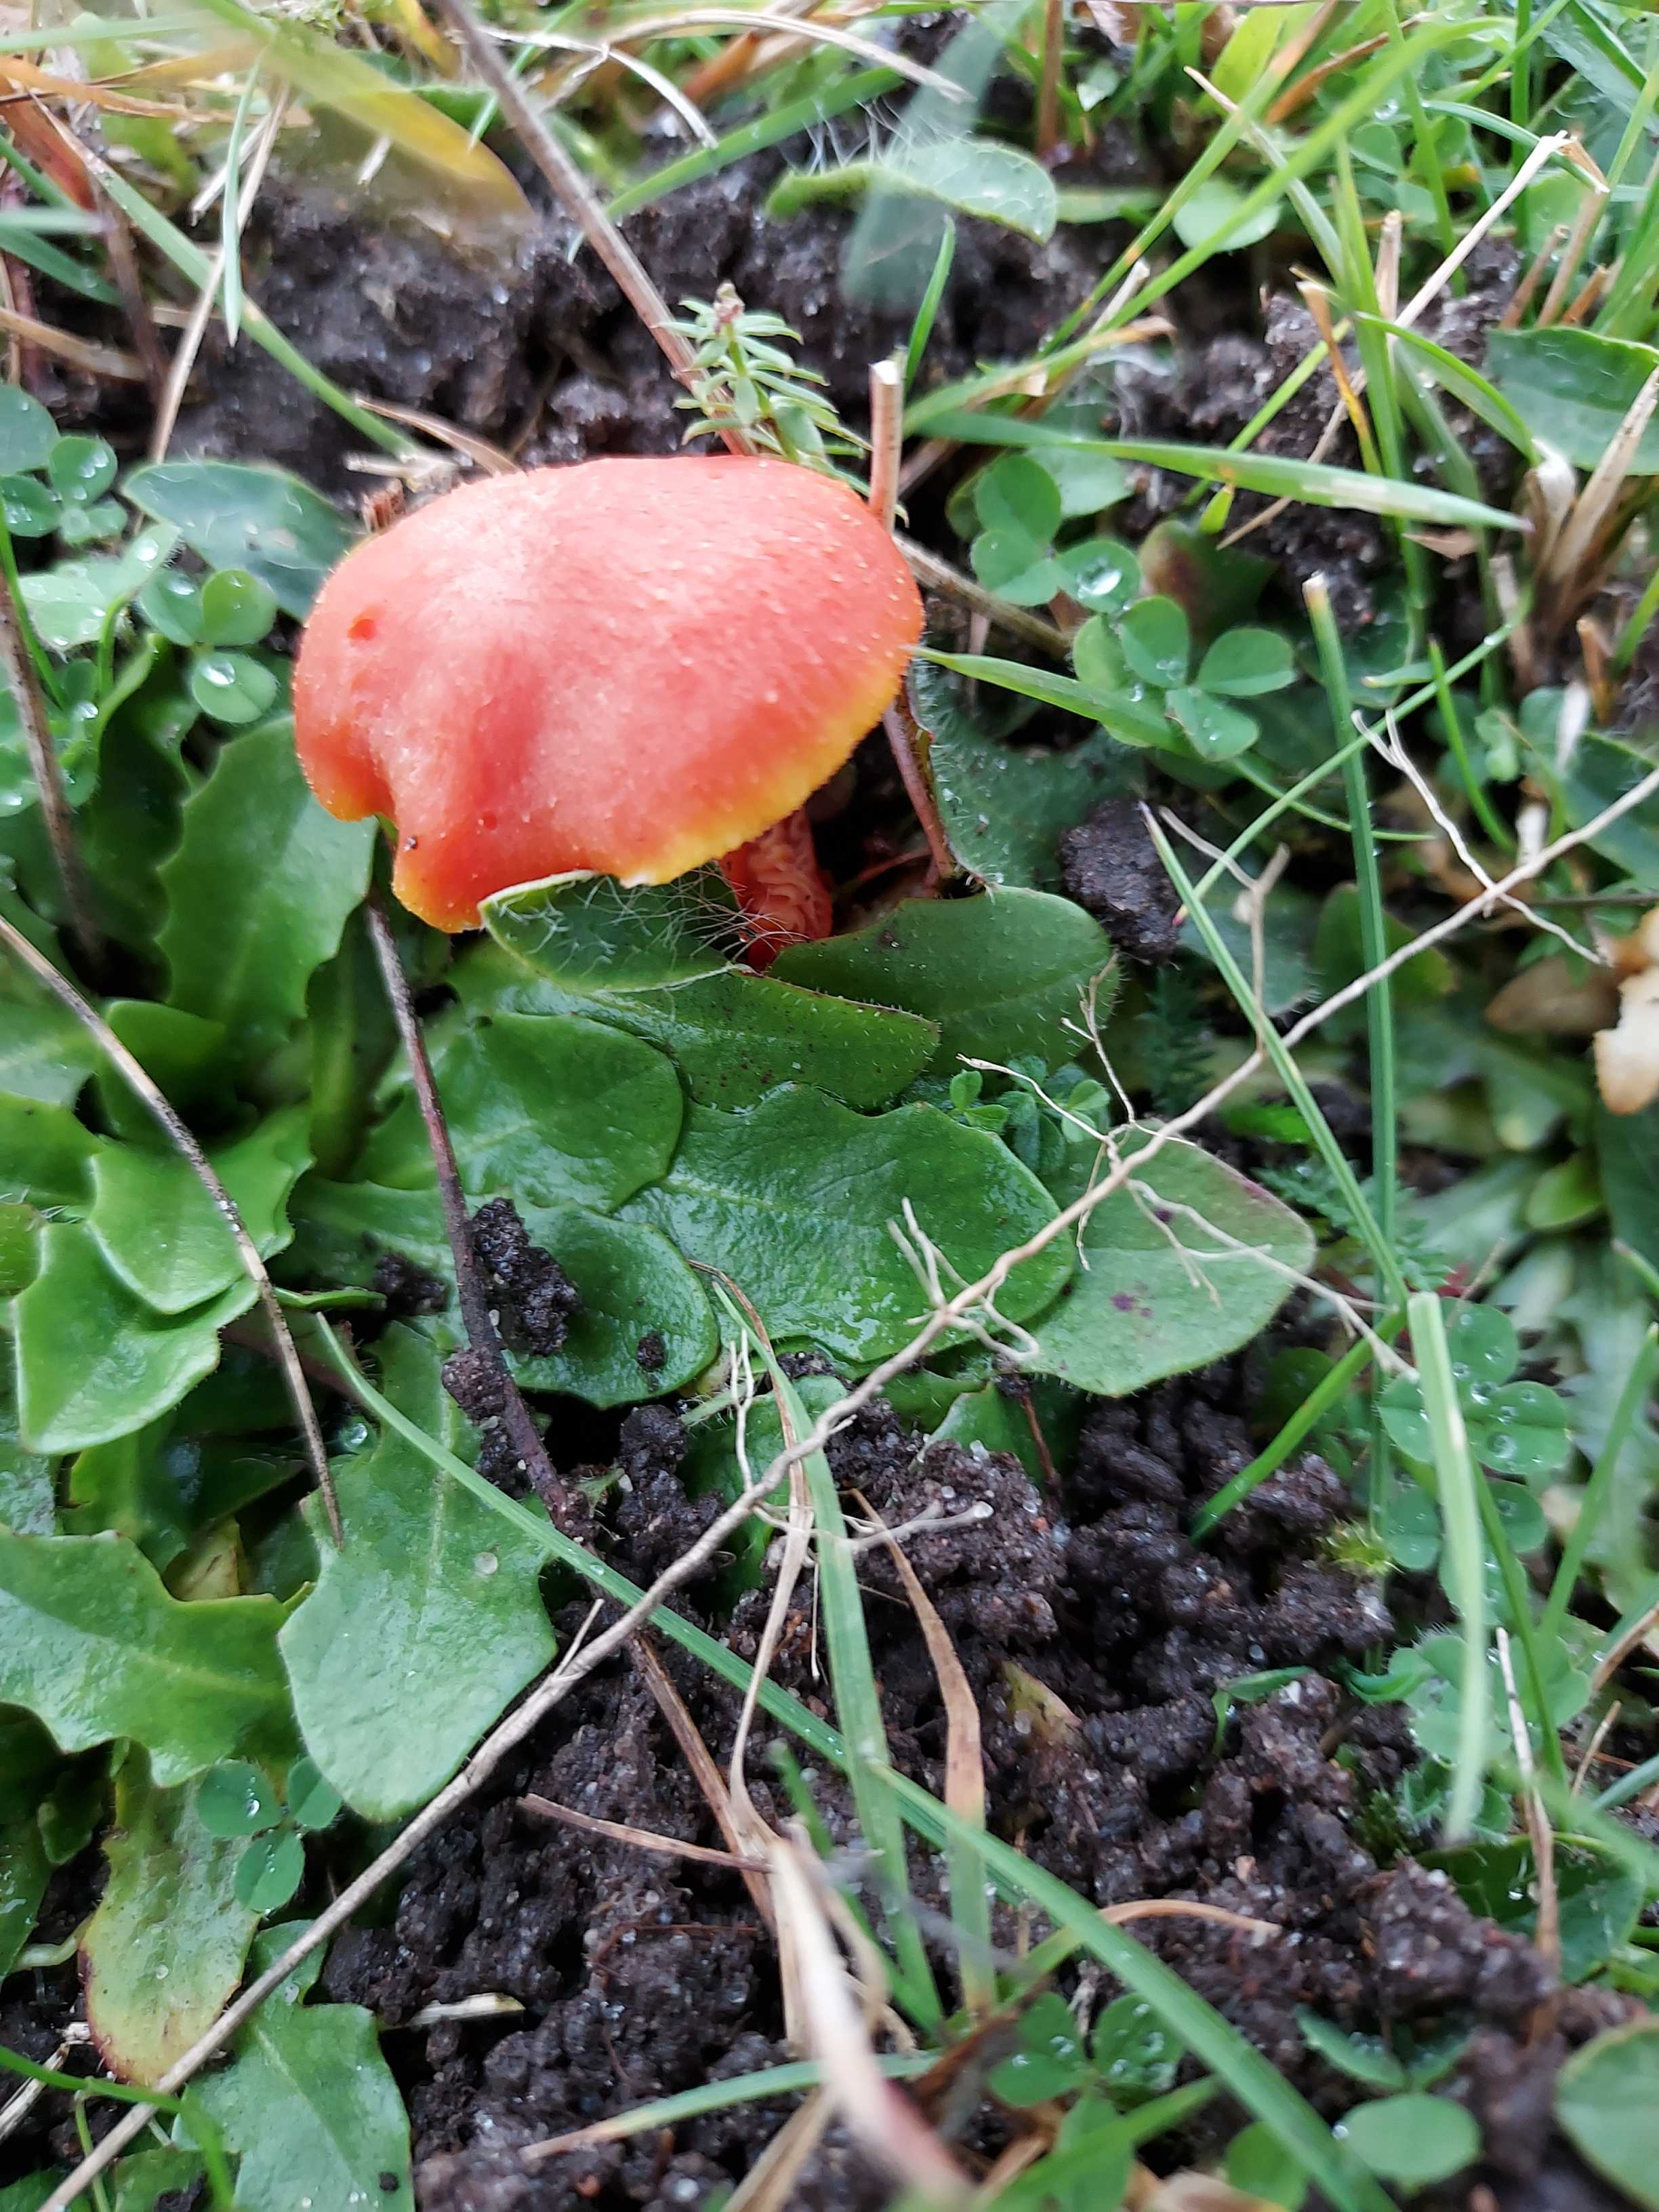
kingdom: Fungi
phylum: Basidiomycota
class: Agaricomycetes
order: Agaricales
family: Hygrophoraceae
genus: Hygrocybe
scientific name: Hygrocybe miniata
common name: mønje-vokshat
